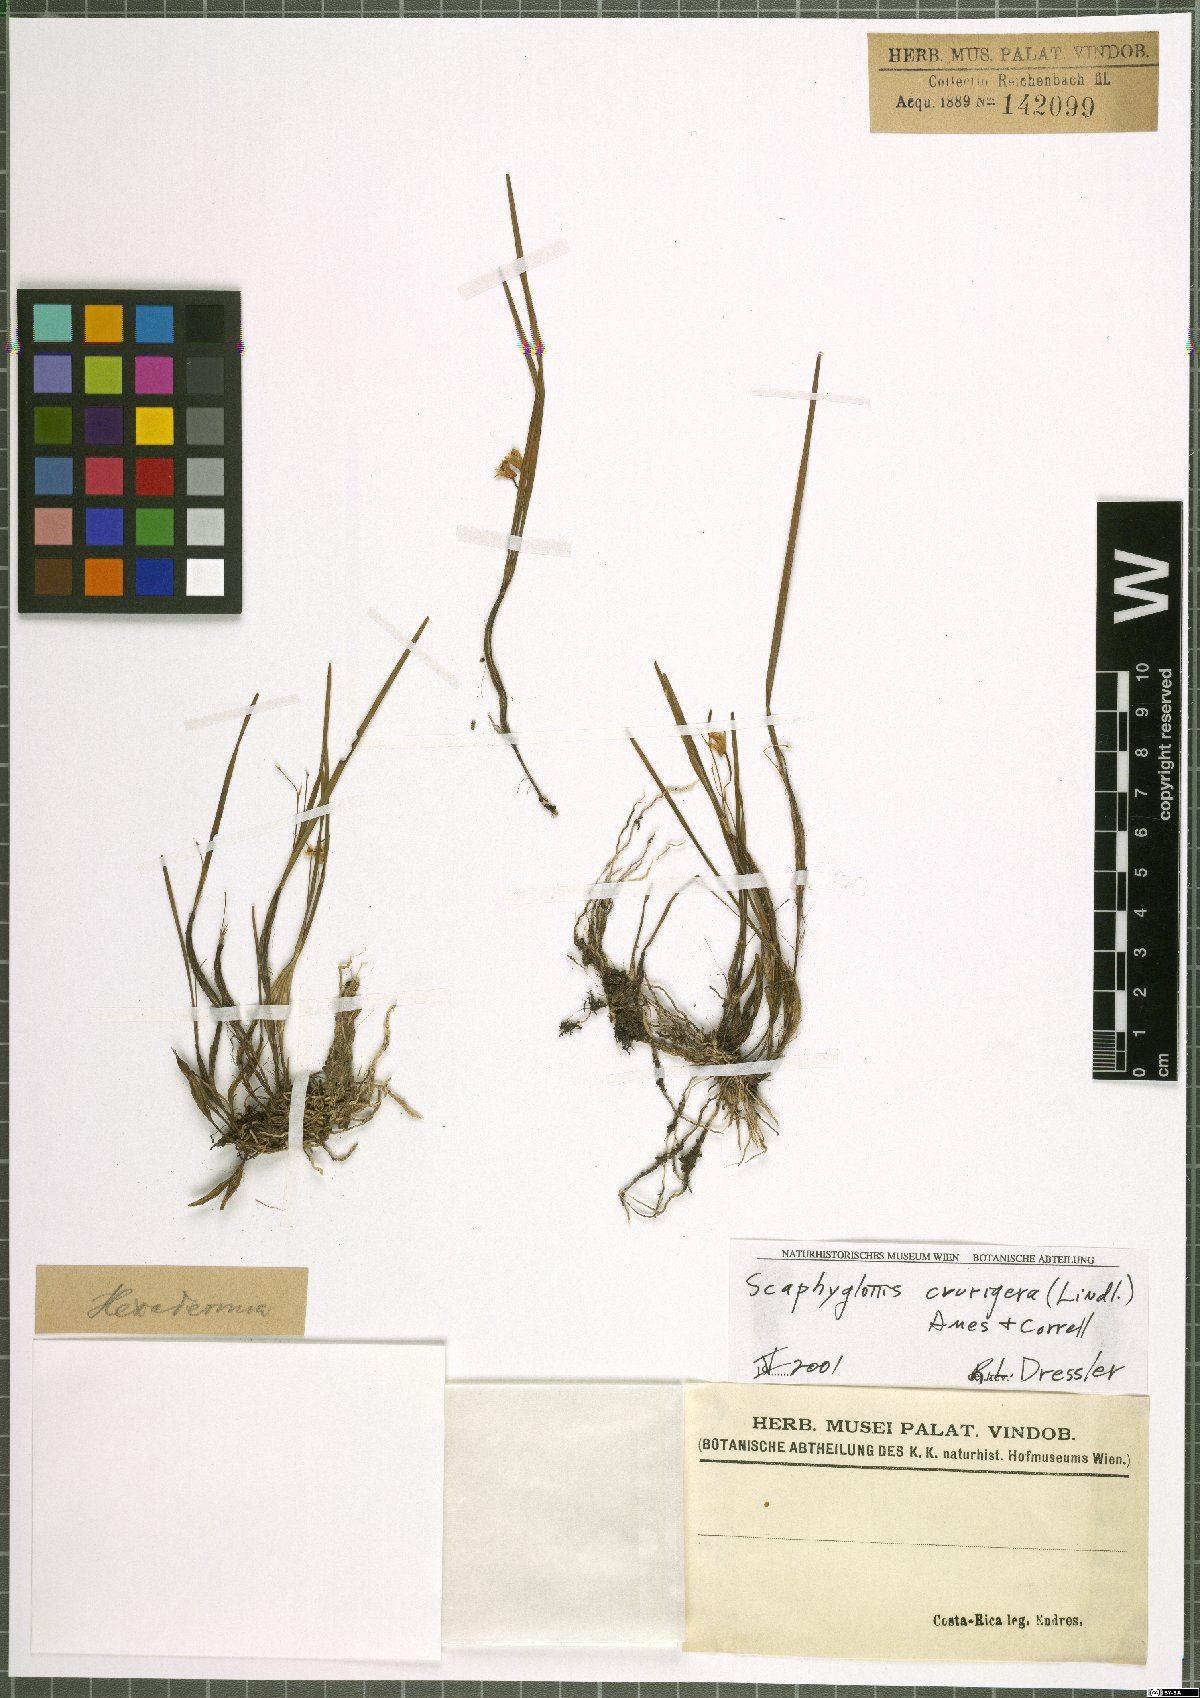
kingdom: Plantae
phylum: Tracheophyta
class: Liliopsida
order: Asparagales
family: Orchidaceae
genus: Scaphyglottis
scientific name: Scaphyglottis crurigera
